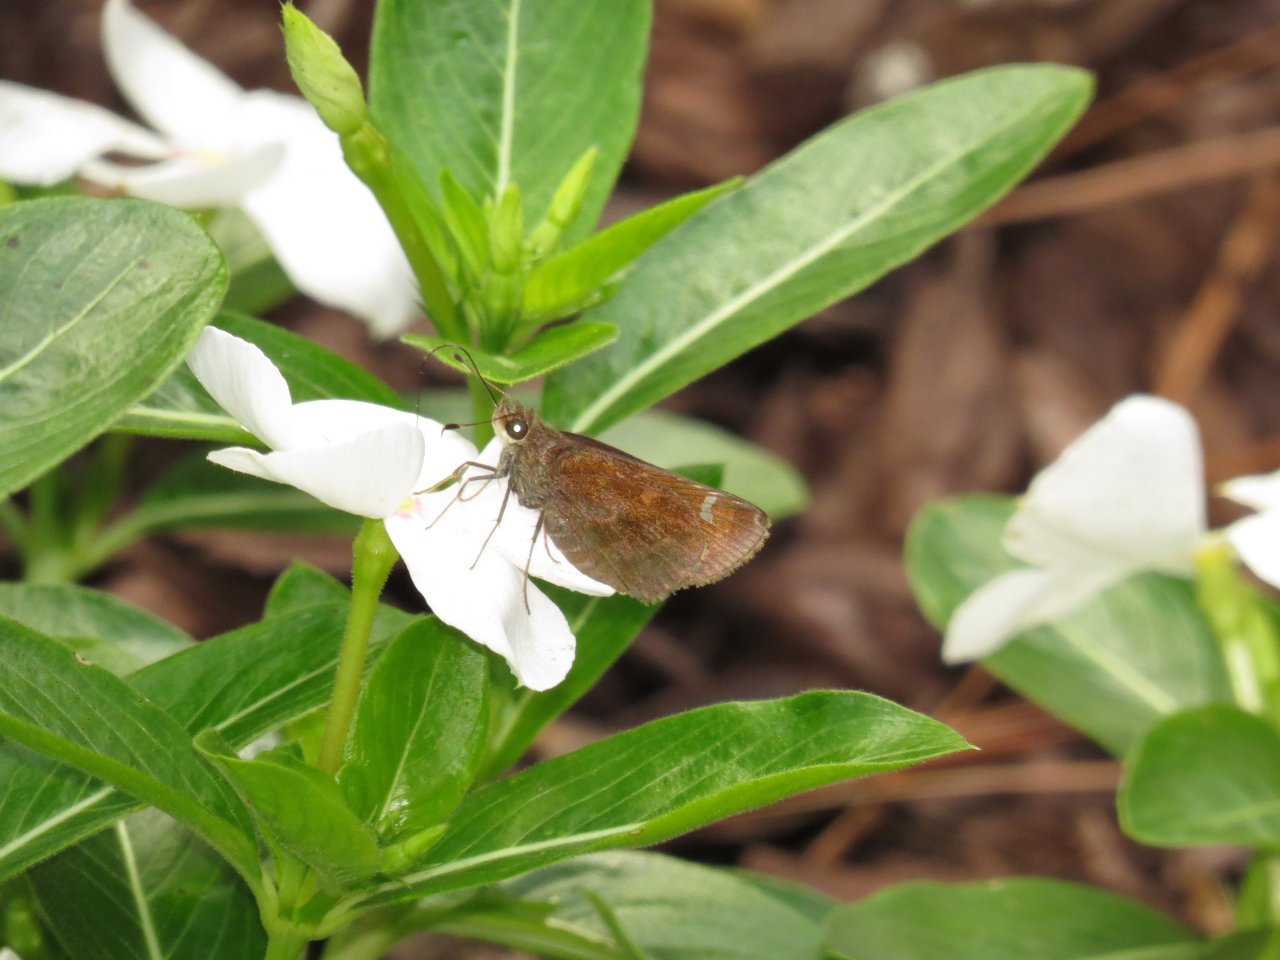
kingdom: Animalia
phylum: Arthropoda
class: Insecta
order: Lepidoptera
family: Hesperiidae
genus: Lerema
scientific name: Lerema accius
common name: Clouded Skipper
